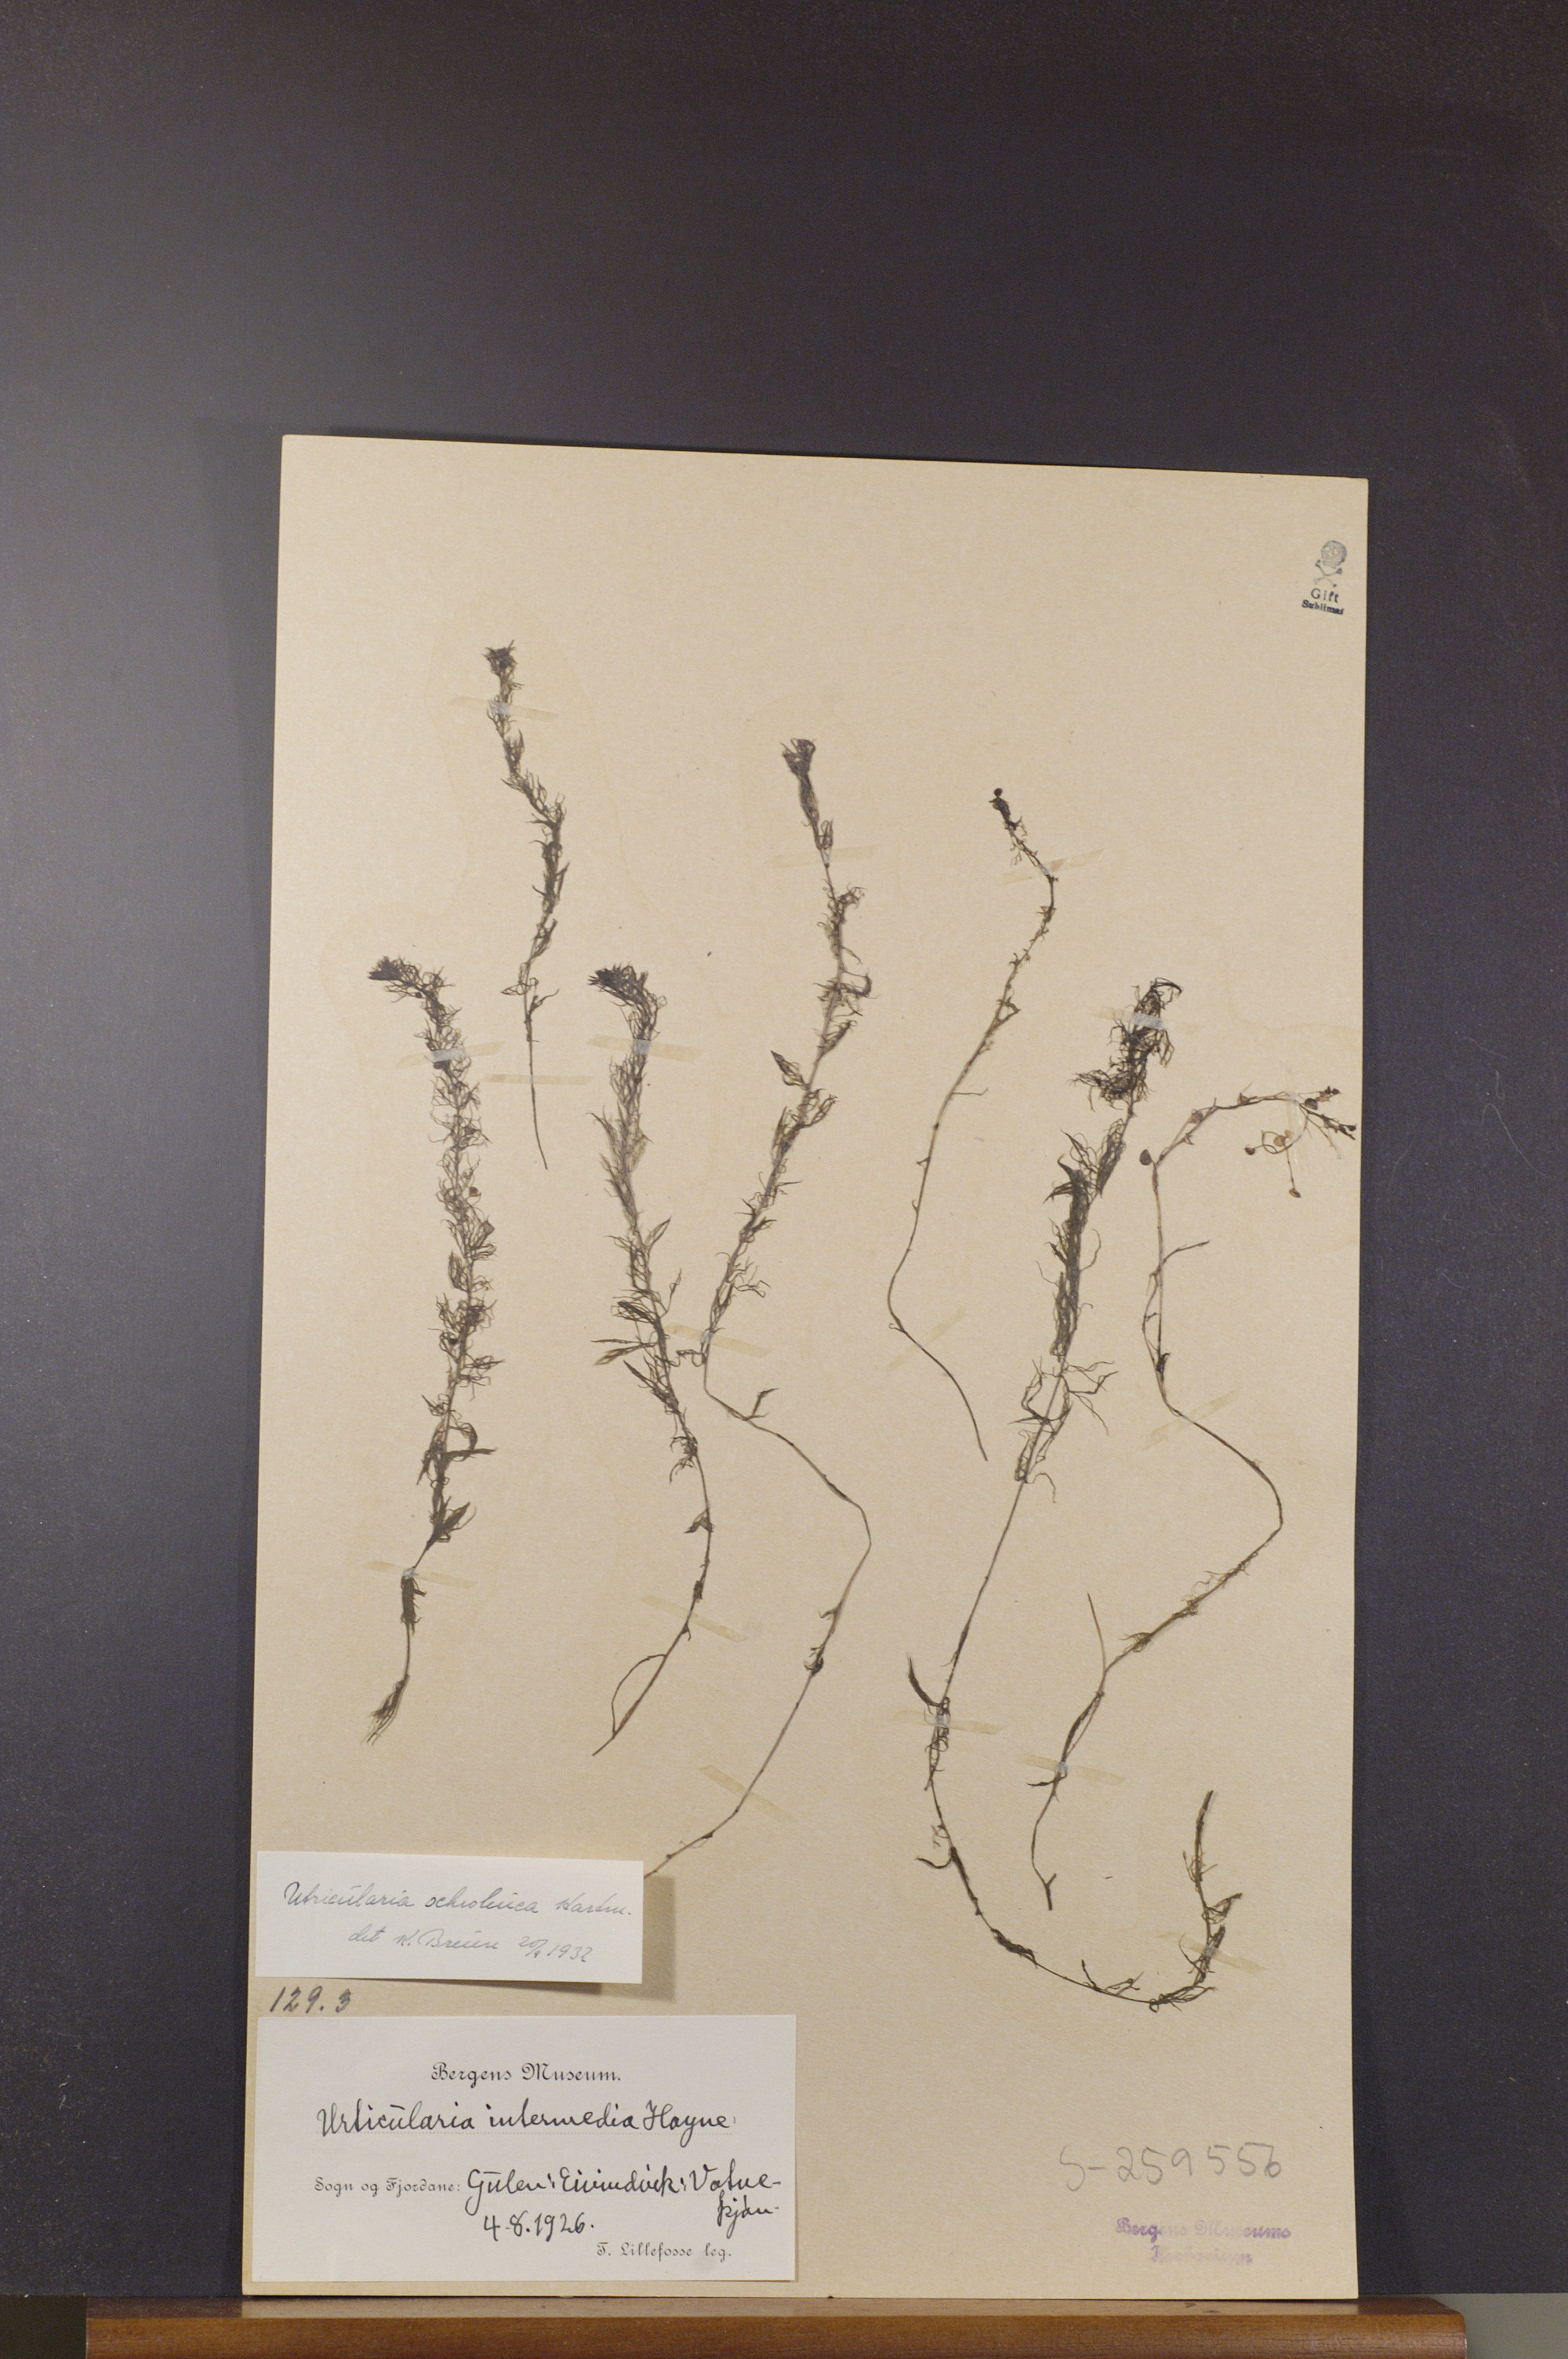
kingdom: Plantae
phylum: Tracheophyta
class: Magnoliopsida
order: Lamiales
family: Lentibulariaceae
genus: Utricularia
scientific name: Utricularia ochroleuca
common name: Pale bladderwort
